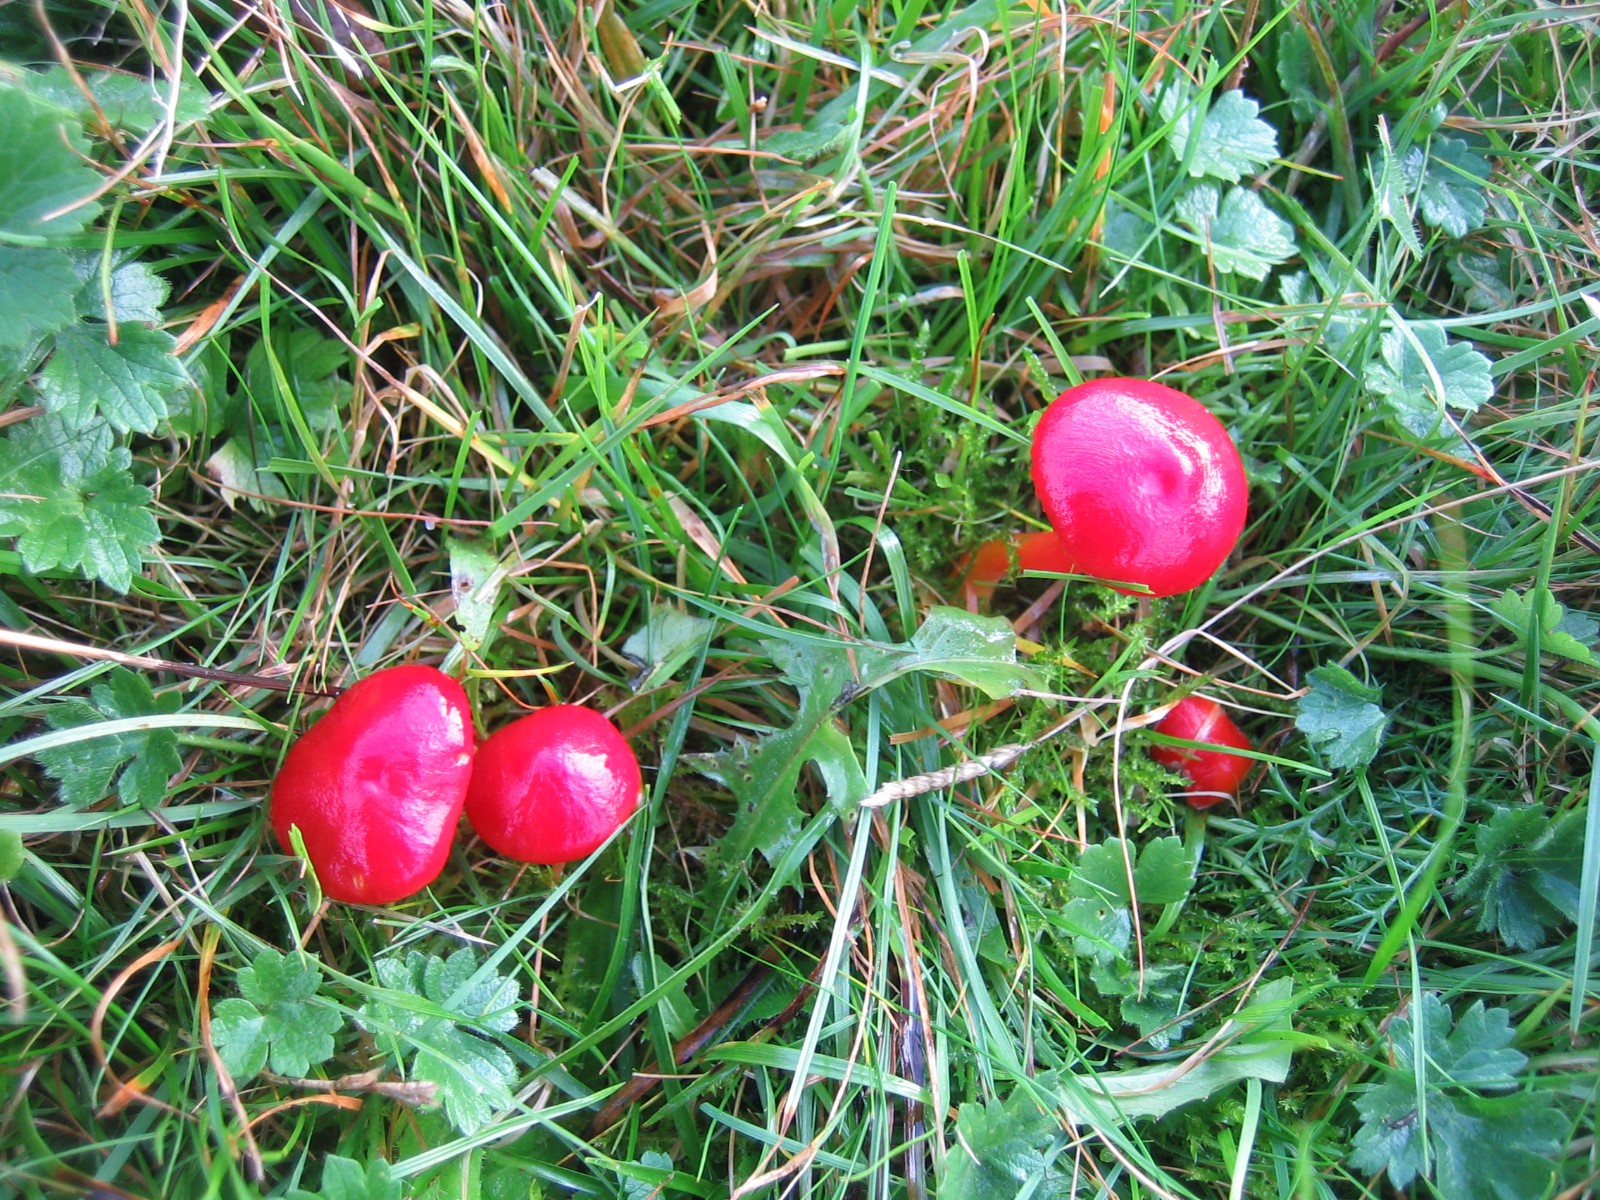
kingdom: Fungi
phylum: Basidiomycota
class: Agaricomycetes
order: Agaricales
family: Hygrophoraceae
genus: Hygrocybe
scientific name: Hygrocybe coccinea
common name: cinnober-vokshat
